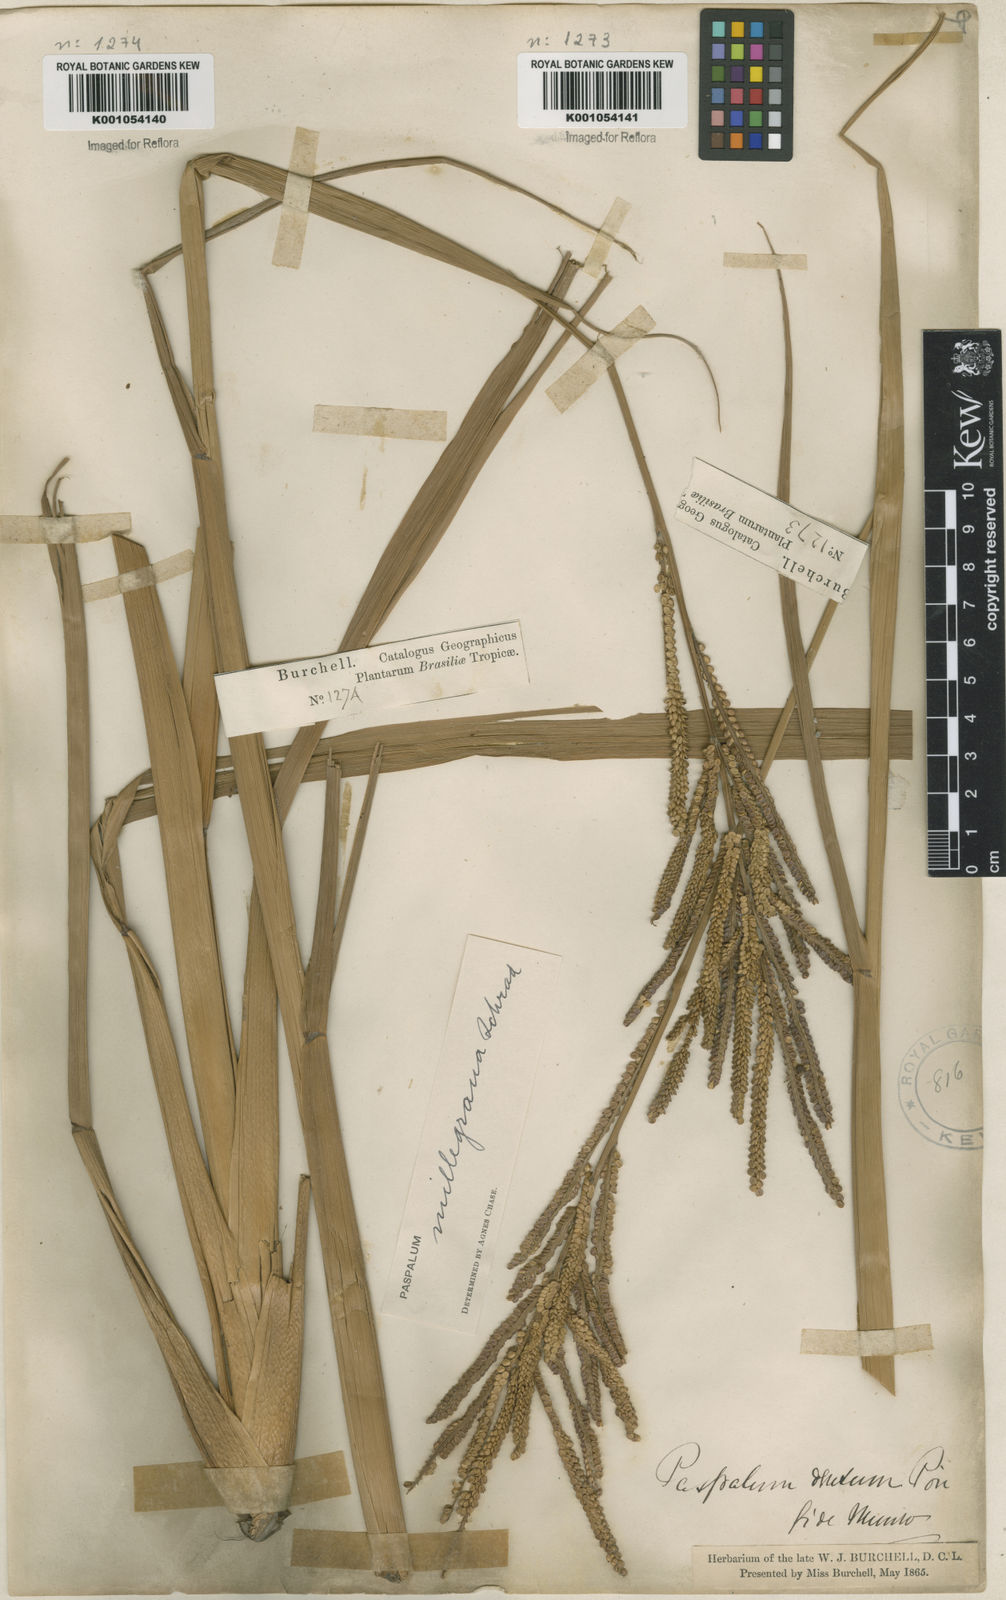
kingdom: Plantae
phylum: Tracheophyta
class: Liliopsida
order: Poales
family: Poaceae
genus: Paspalum
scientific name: Paspalum
